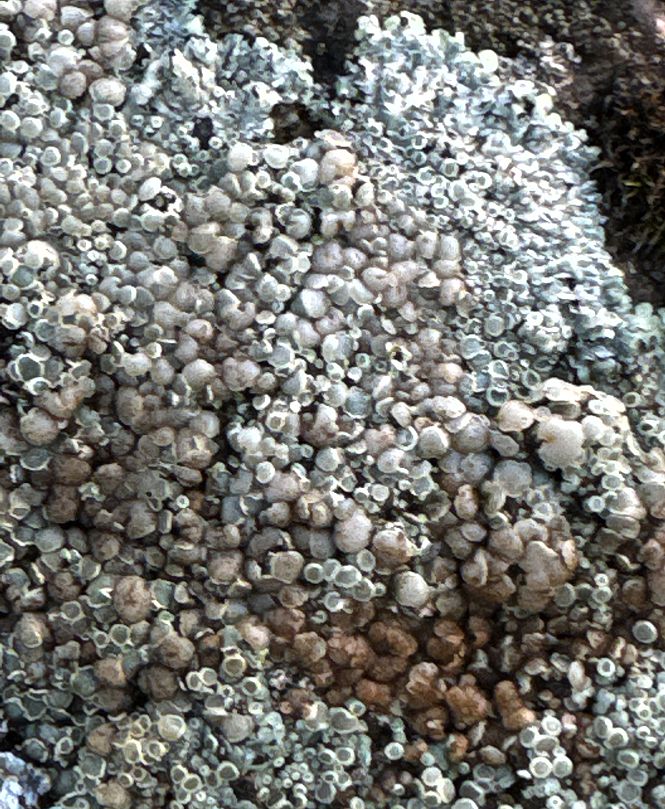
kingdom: Fungi
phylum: Ascomycota
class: Lecanoromycetes
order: Lecanorales
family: Lecanoraceae
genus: Protoparmeliopsis
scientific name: Protoparmeliopsis muralis
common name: randfliget kantskivelav
